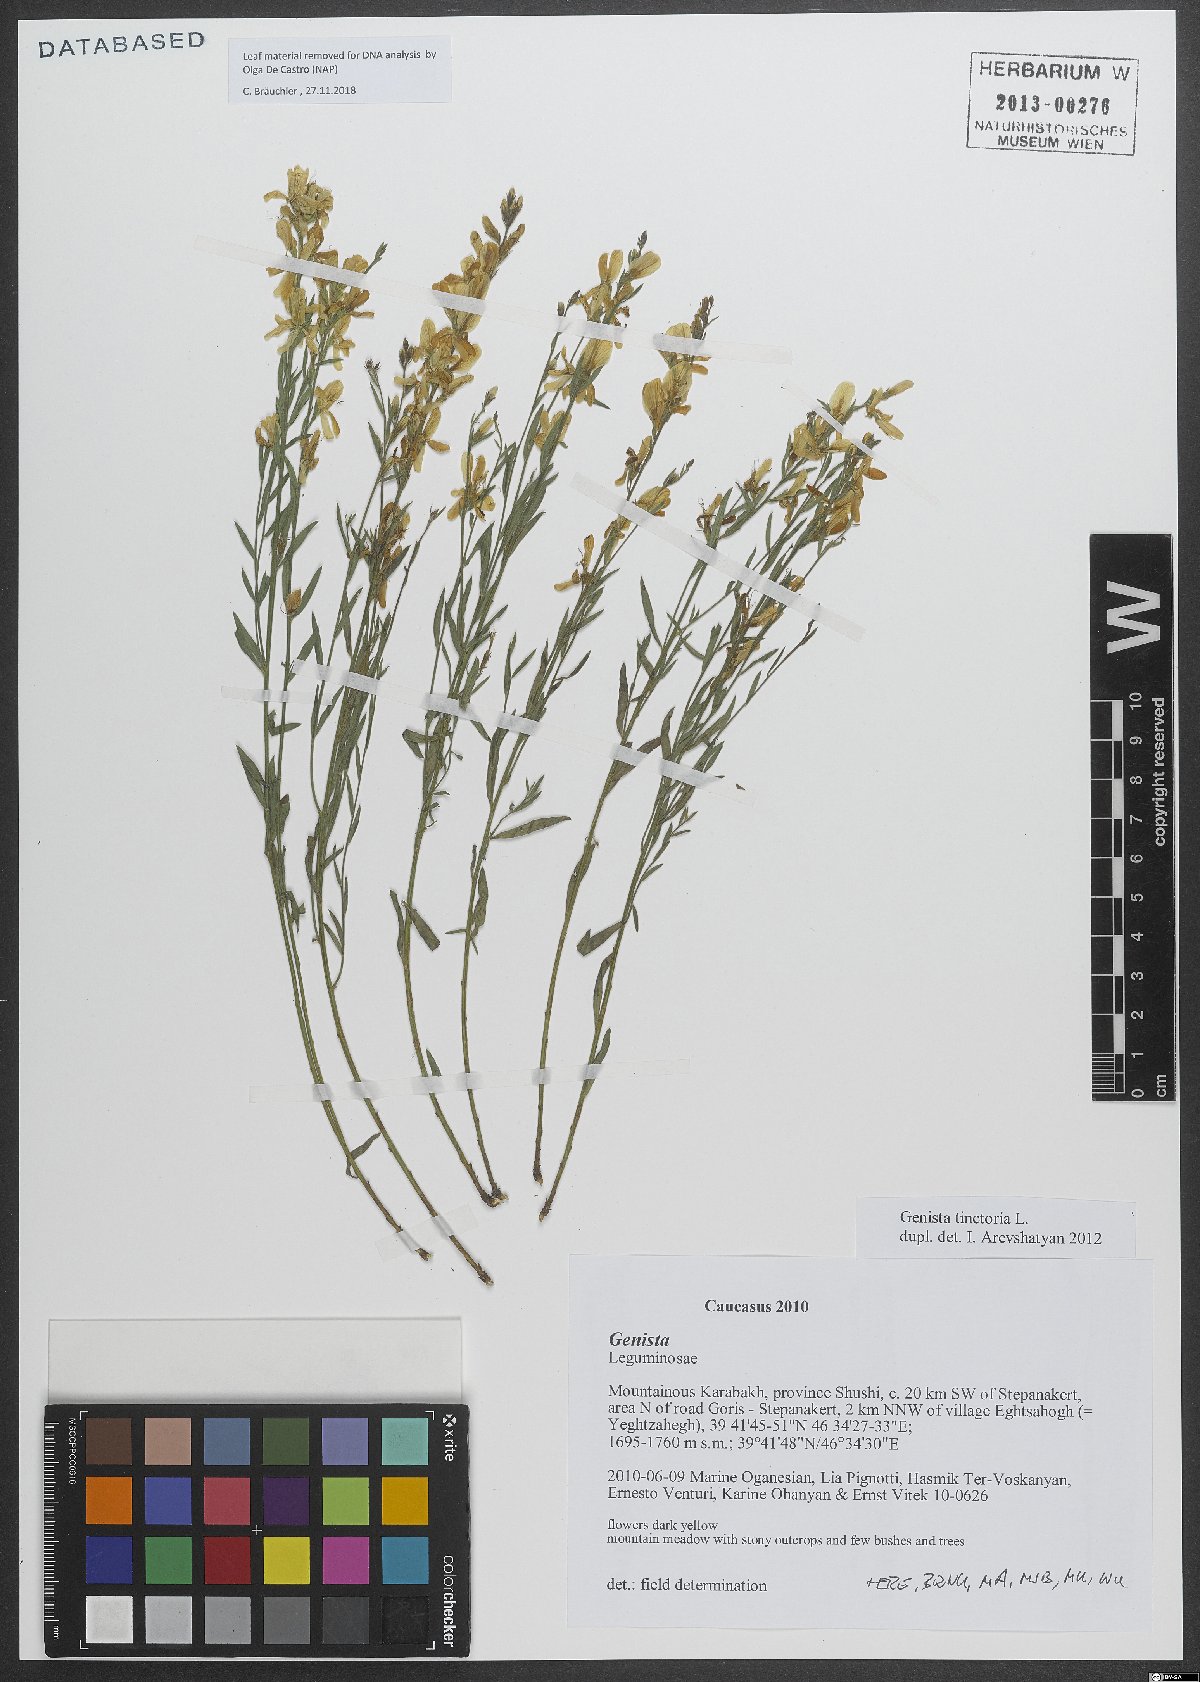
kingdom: Plantae
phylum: Tracheophyta
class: Magnoliopsida
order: Fabales
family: Fabaceae
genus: Genista
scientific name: Genista tinctoria
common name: Dyer's greenweed
